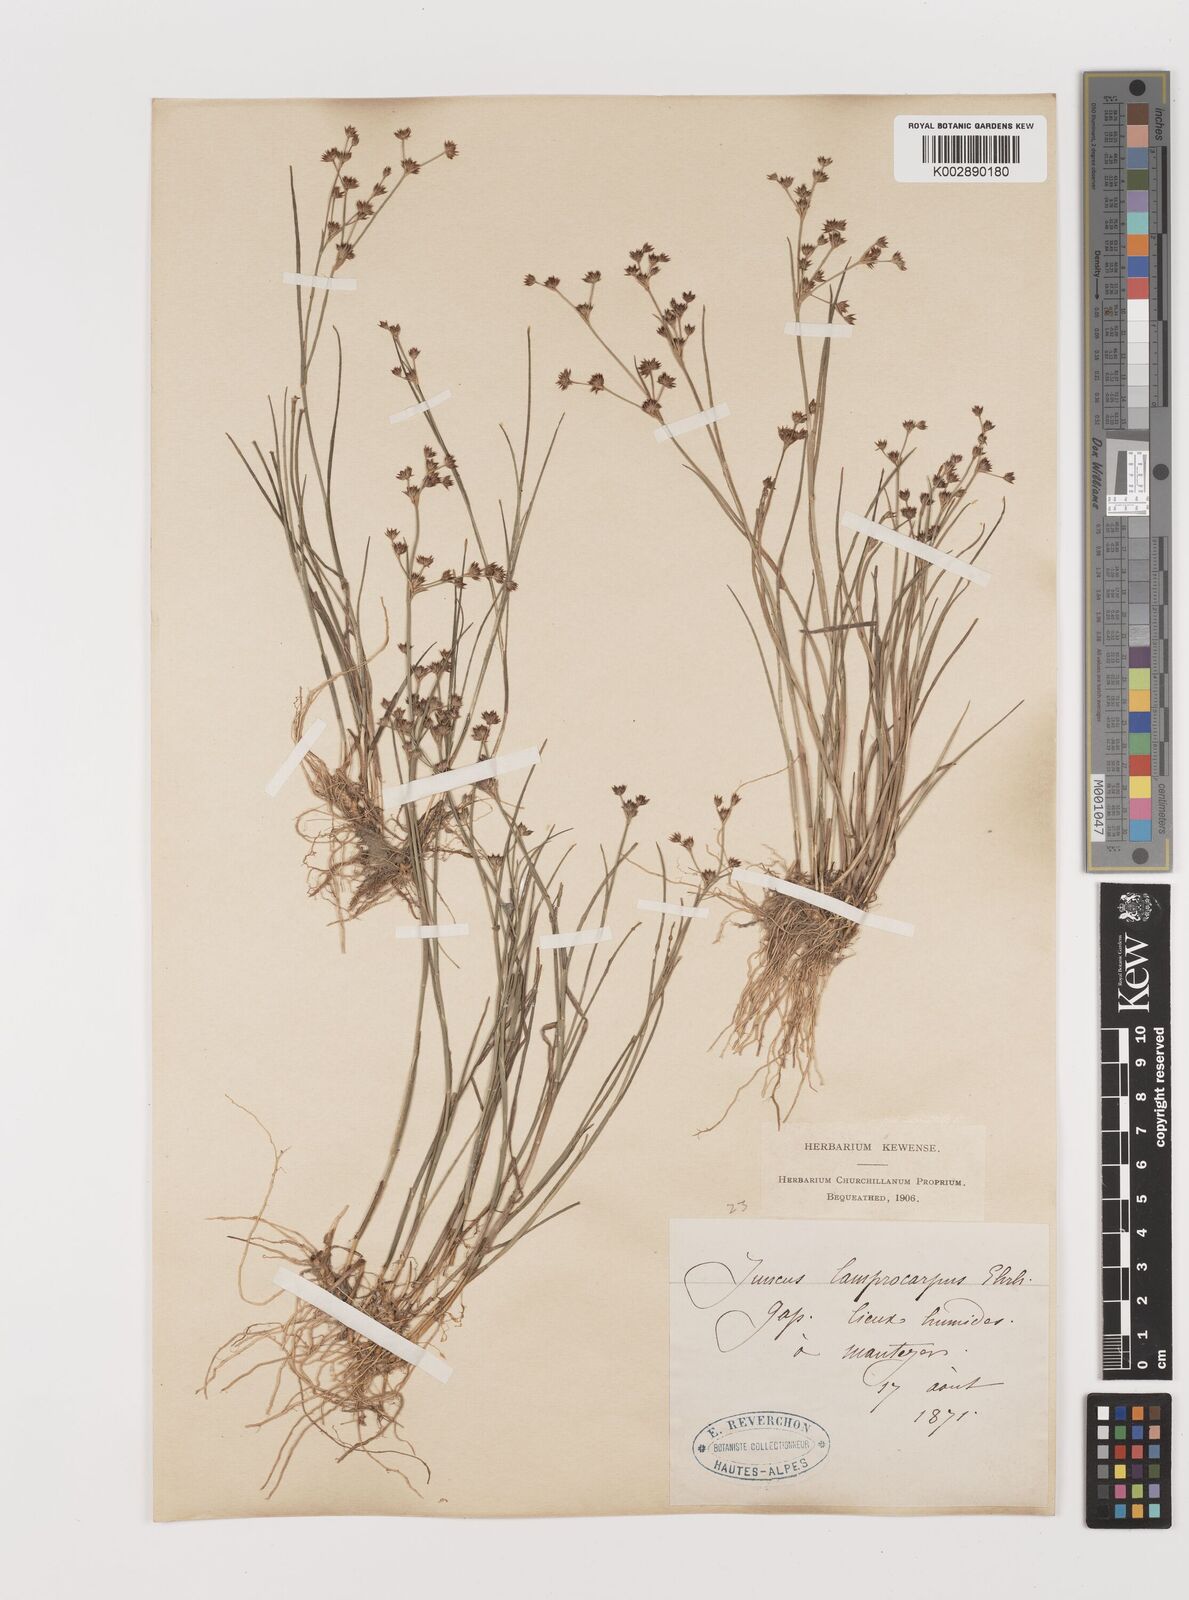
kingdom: Plantae
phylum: Tracheophyta
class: Liliopsida
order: Poales
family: Juncaceae
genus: Juncus
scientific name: Juncus articulatus
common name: Jointed rush
